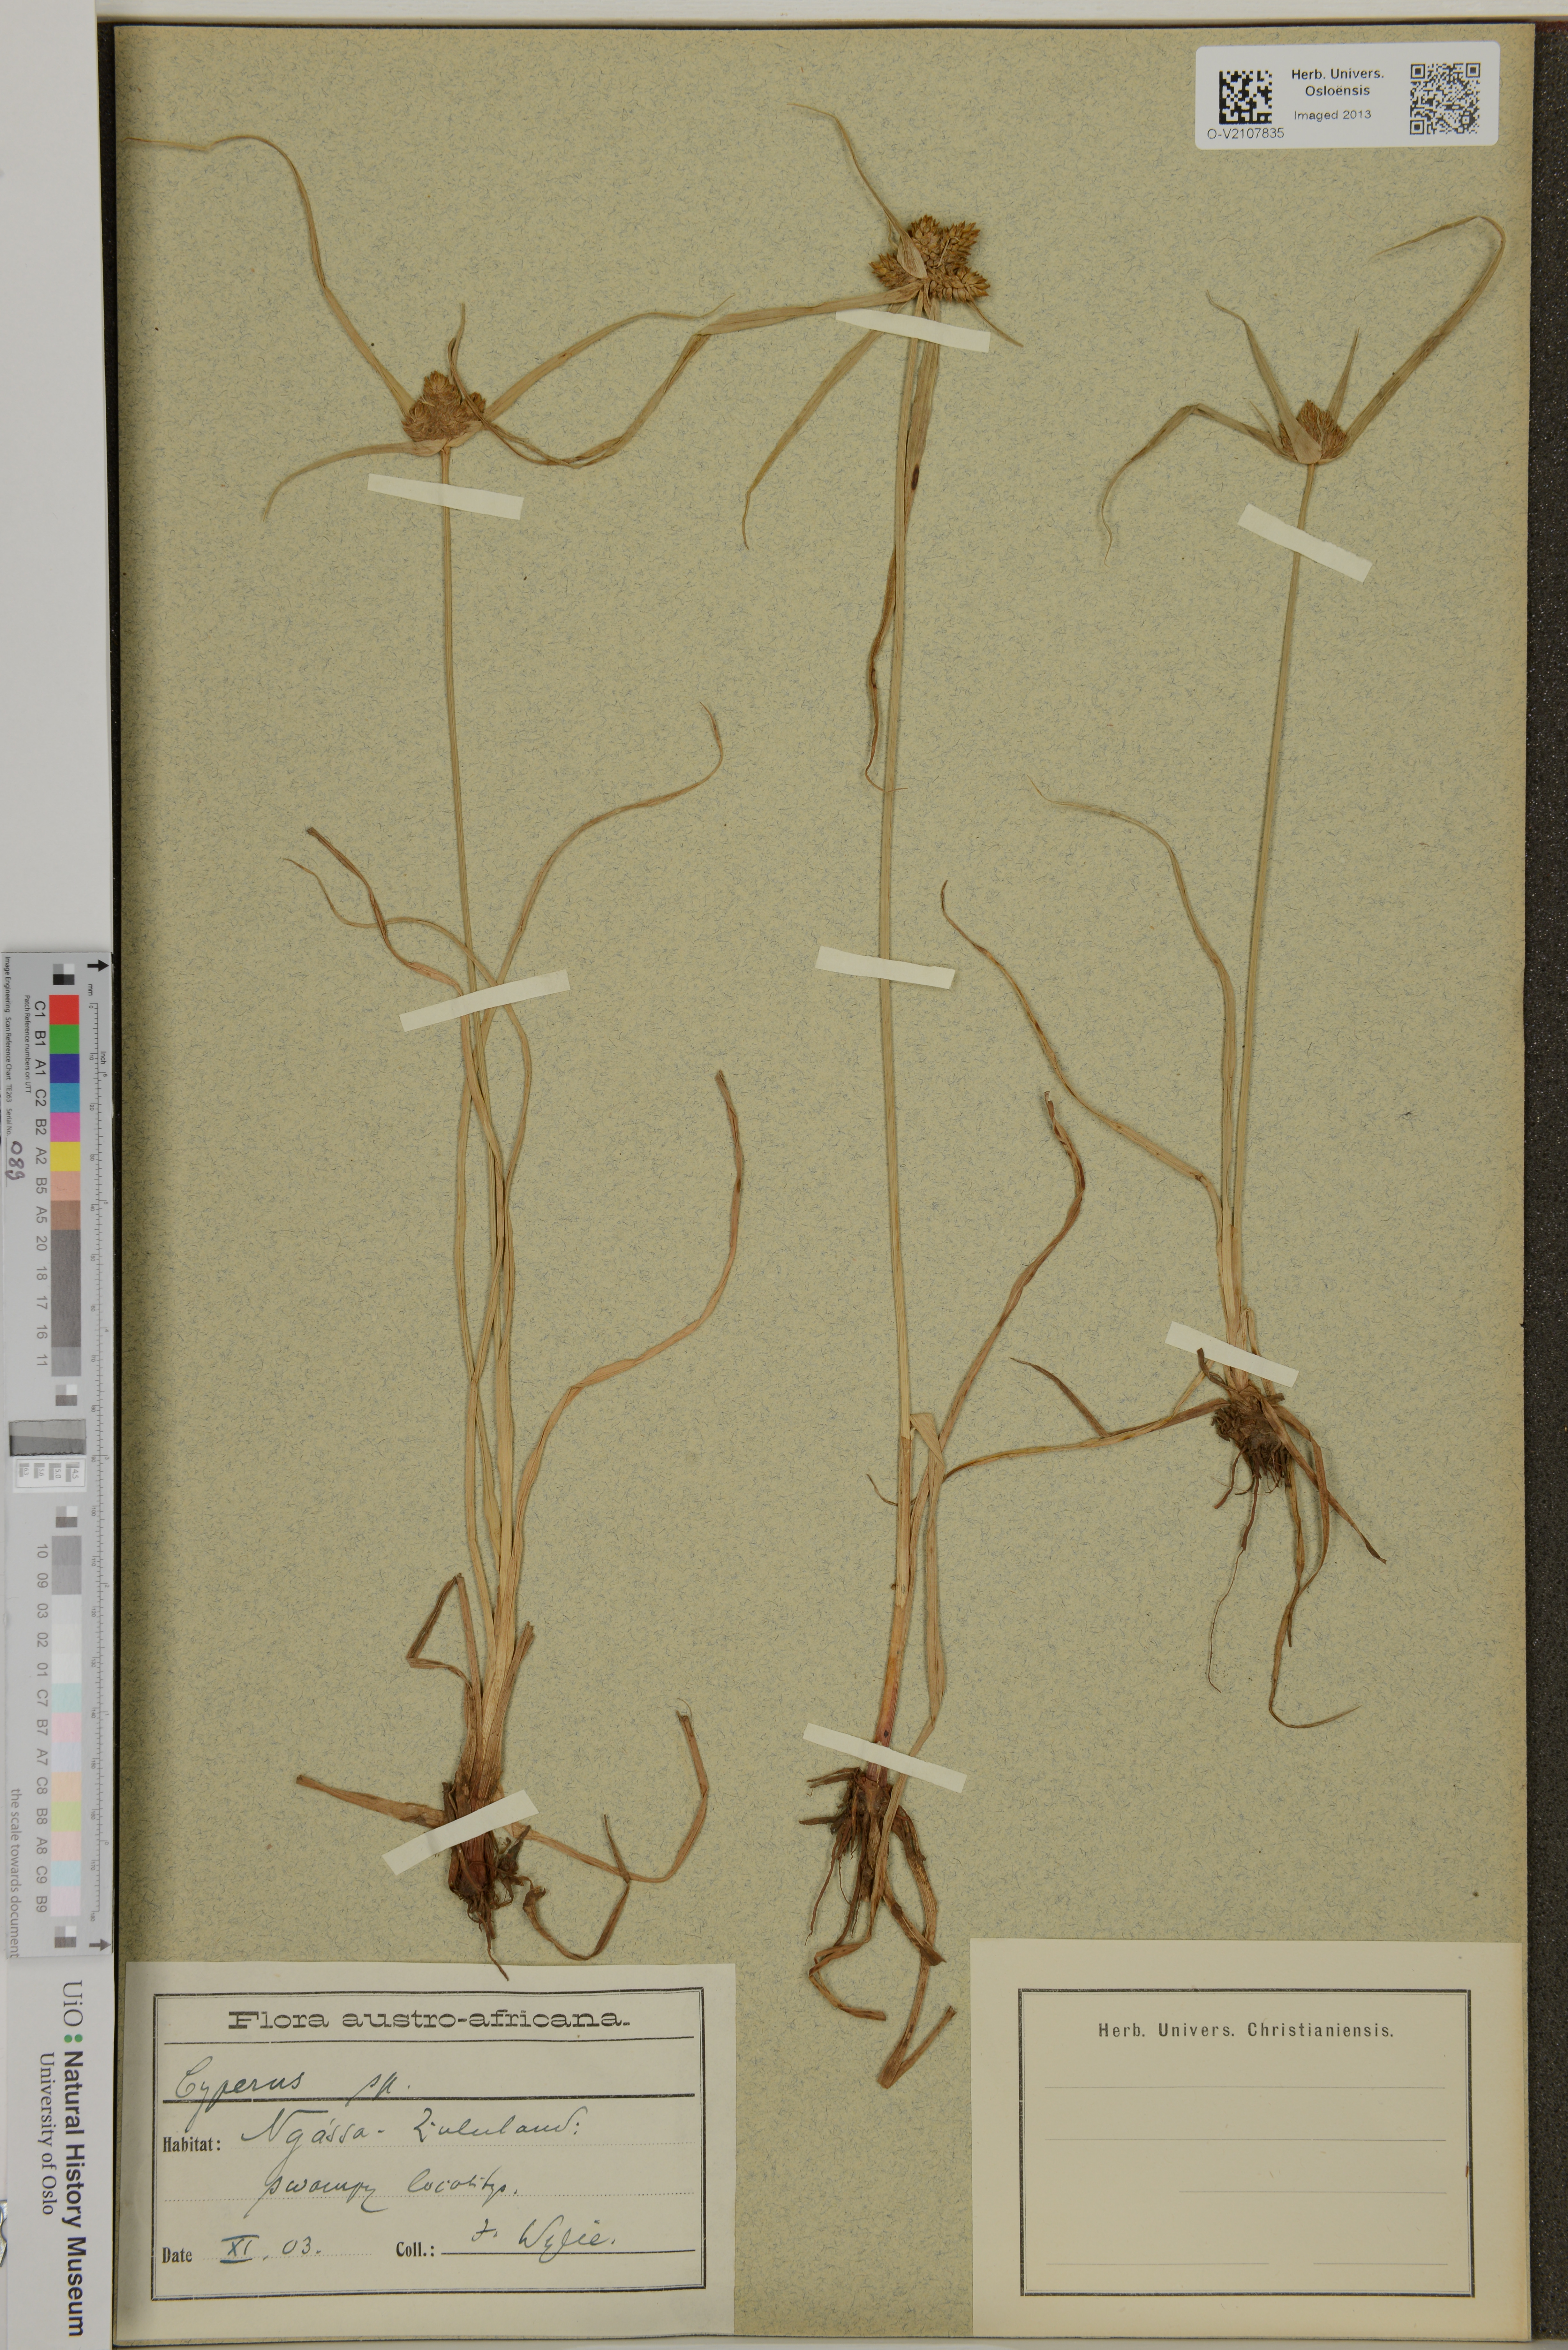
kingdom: Plantae
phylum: Tracheophyta
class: Liliopsida
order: Poales
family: Cyperaceae
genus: Cyperus
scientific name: Cyperus
